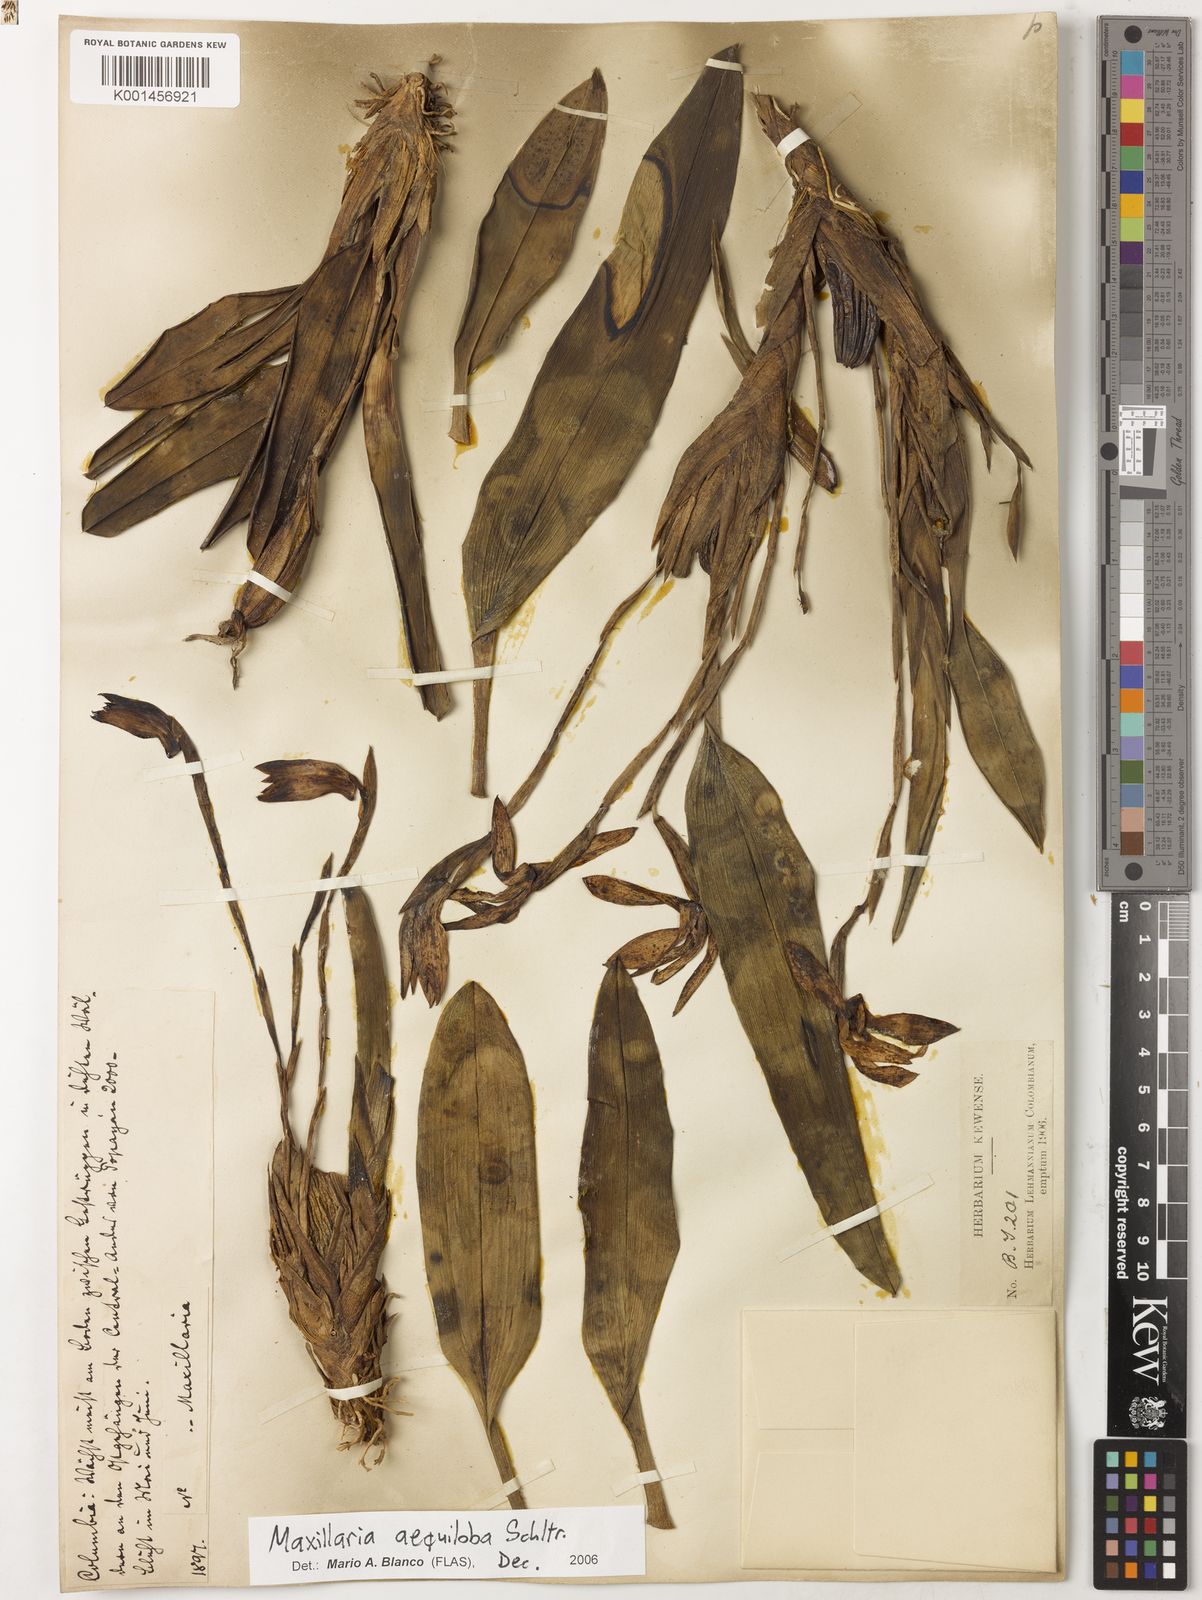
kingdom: Plantae
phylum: Tracheophyta
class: Liliopsida
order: Asparagales
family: Orchidaceae
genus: Maxillaria
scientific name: Maxillaria aequiloba
